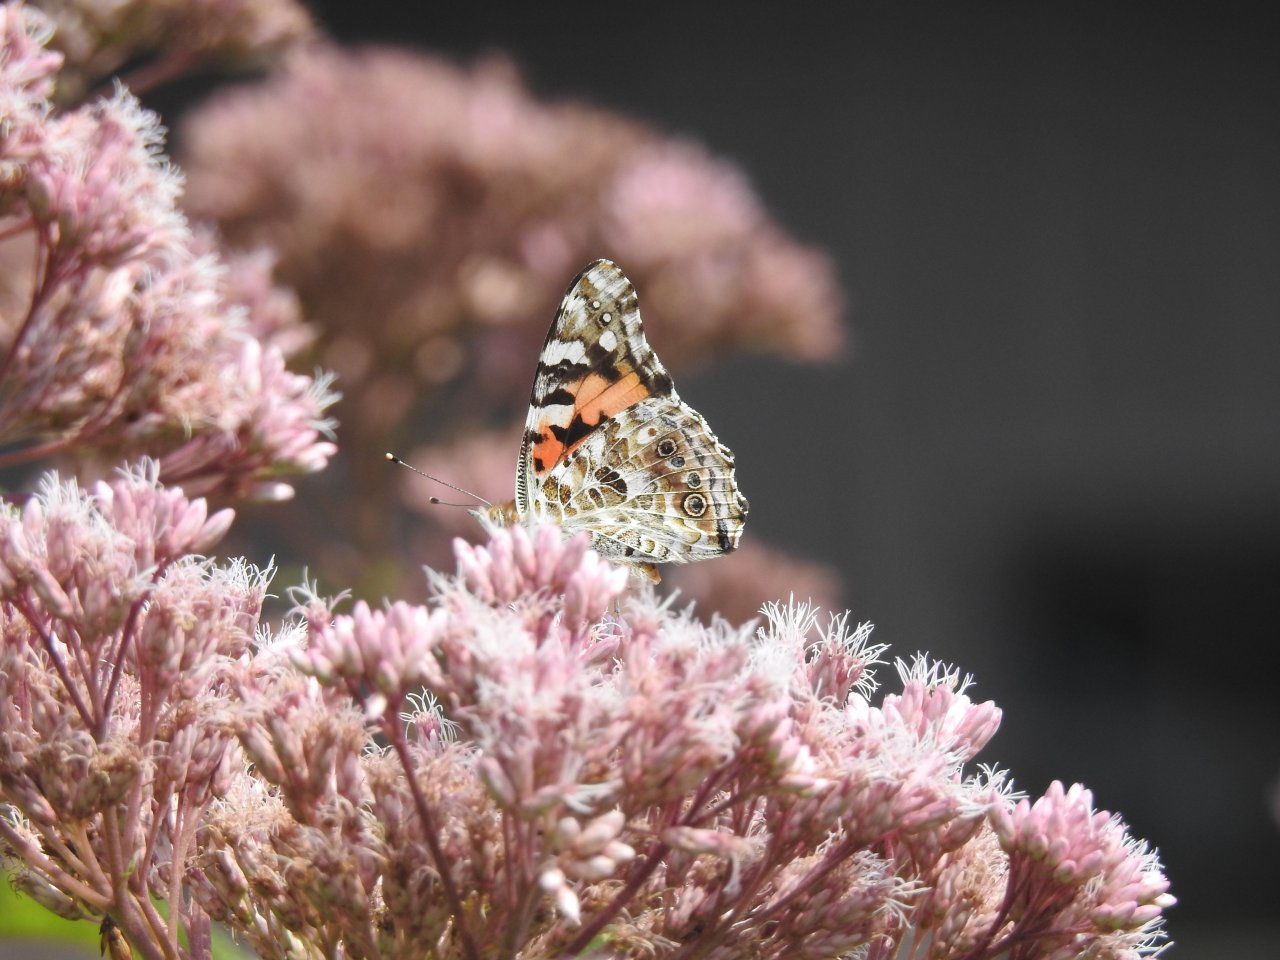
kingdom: Animalia
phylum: Arthropoda
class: Insecta
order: Lepidoptera
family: Nymphalidae
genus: Vanessa
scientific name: Vanessa cardui
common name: Painted Lady
